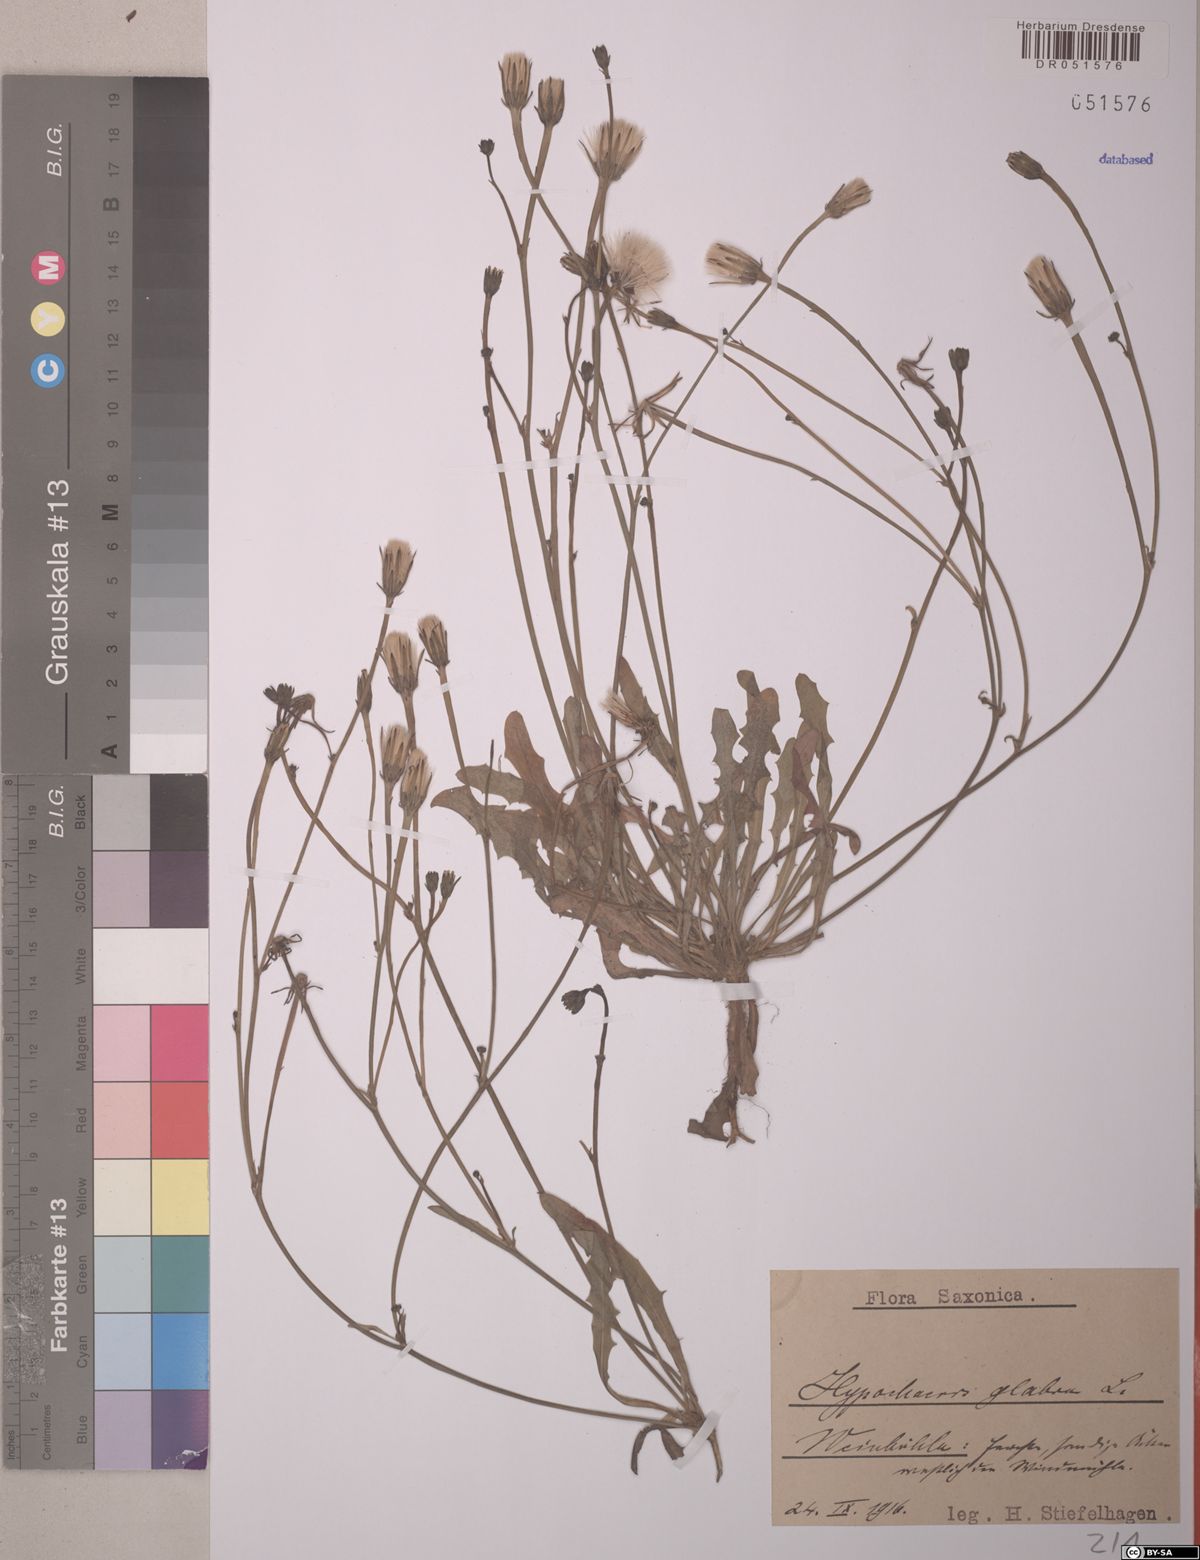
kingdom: Plantae
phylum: Tracheophyta
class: Magnoliopsida
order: Asterales
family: Asteraceae
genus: Hypochaeris
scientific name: Hypochaeris glabra
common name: Smooth catsear
